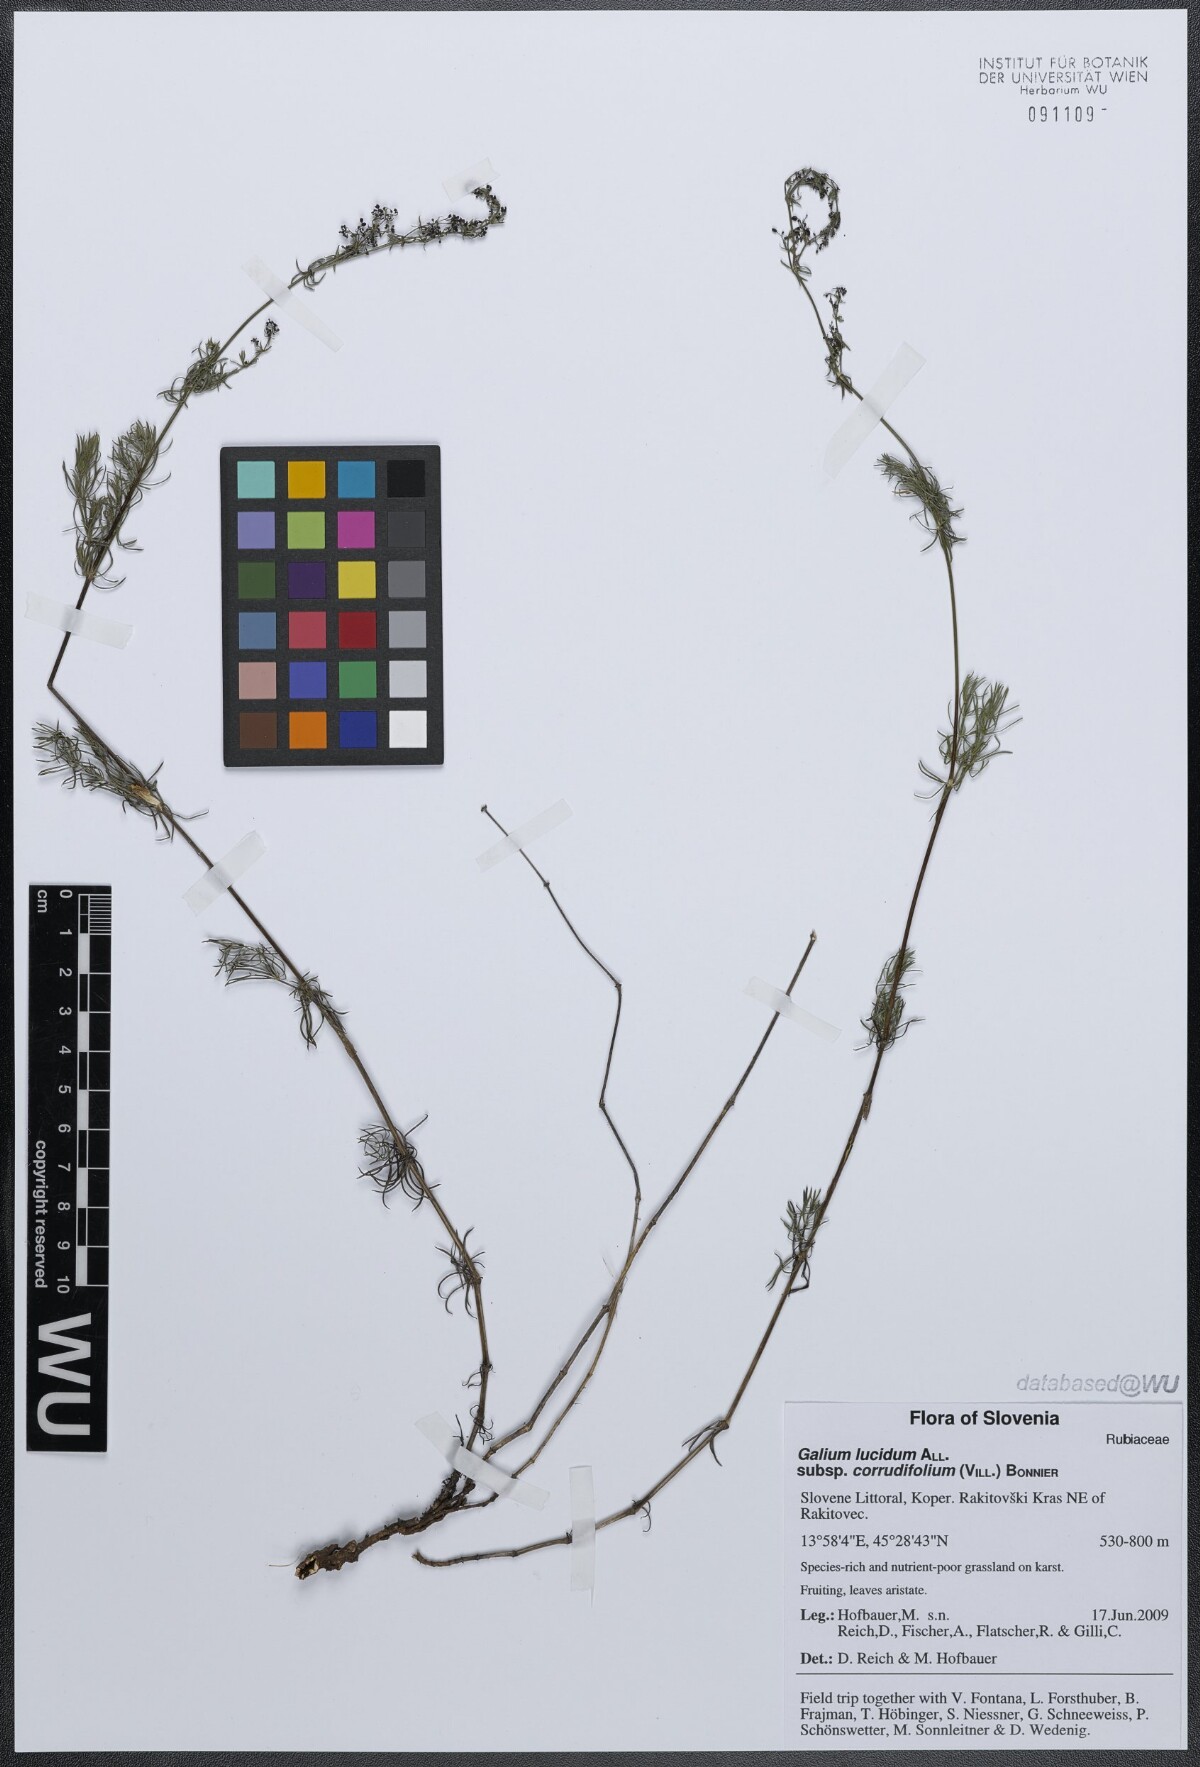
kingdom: Plantae
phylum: Tracheophyta
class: Magnoliopsida
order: Gentianales
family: Rubiaceae
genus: Galium
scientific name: Galium lucidum
